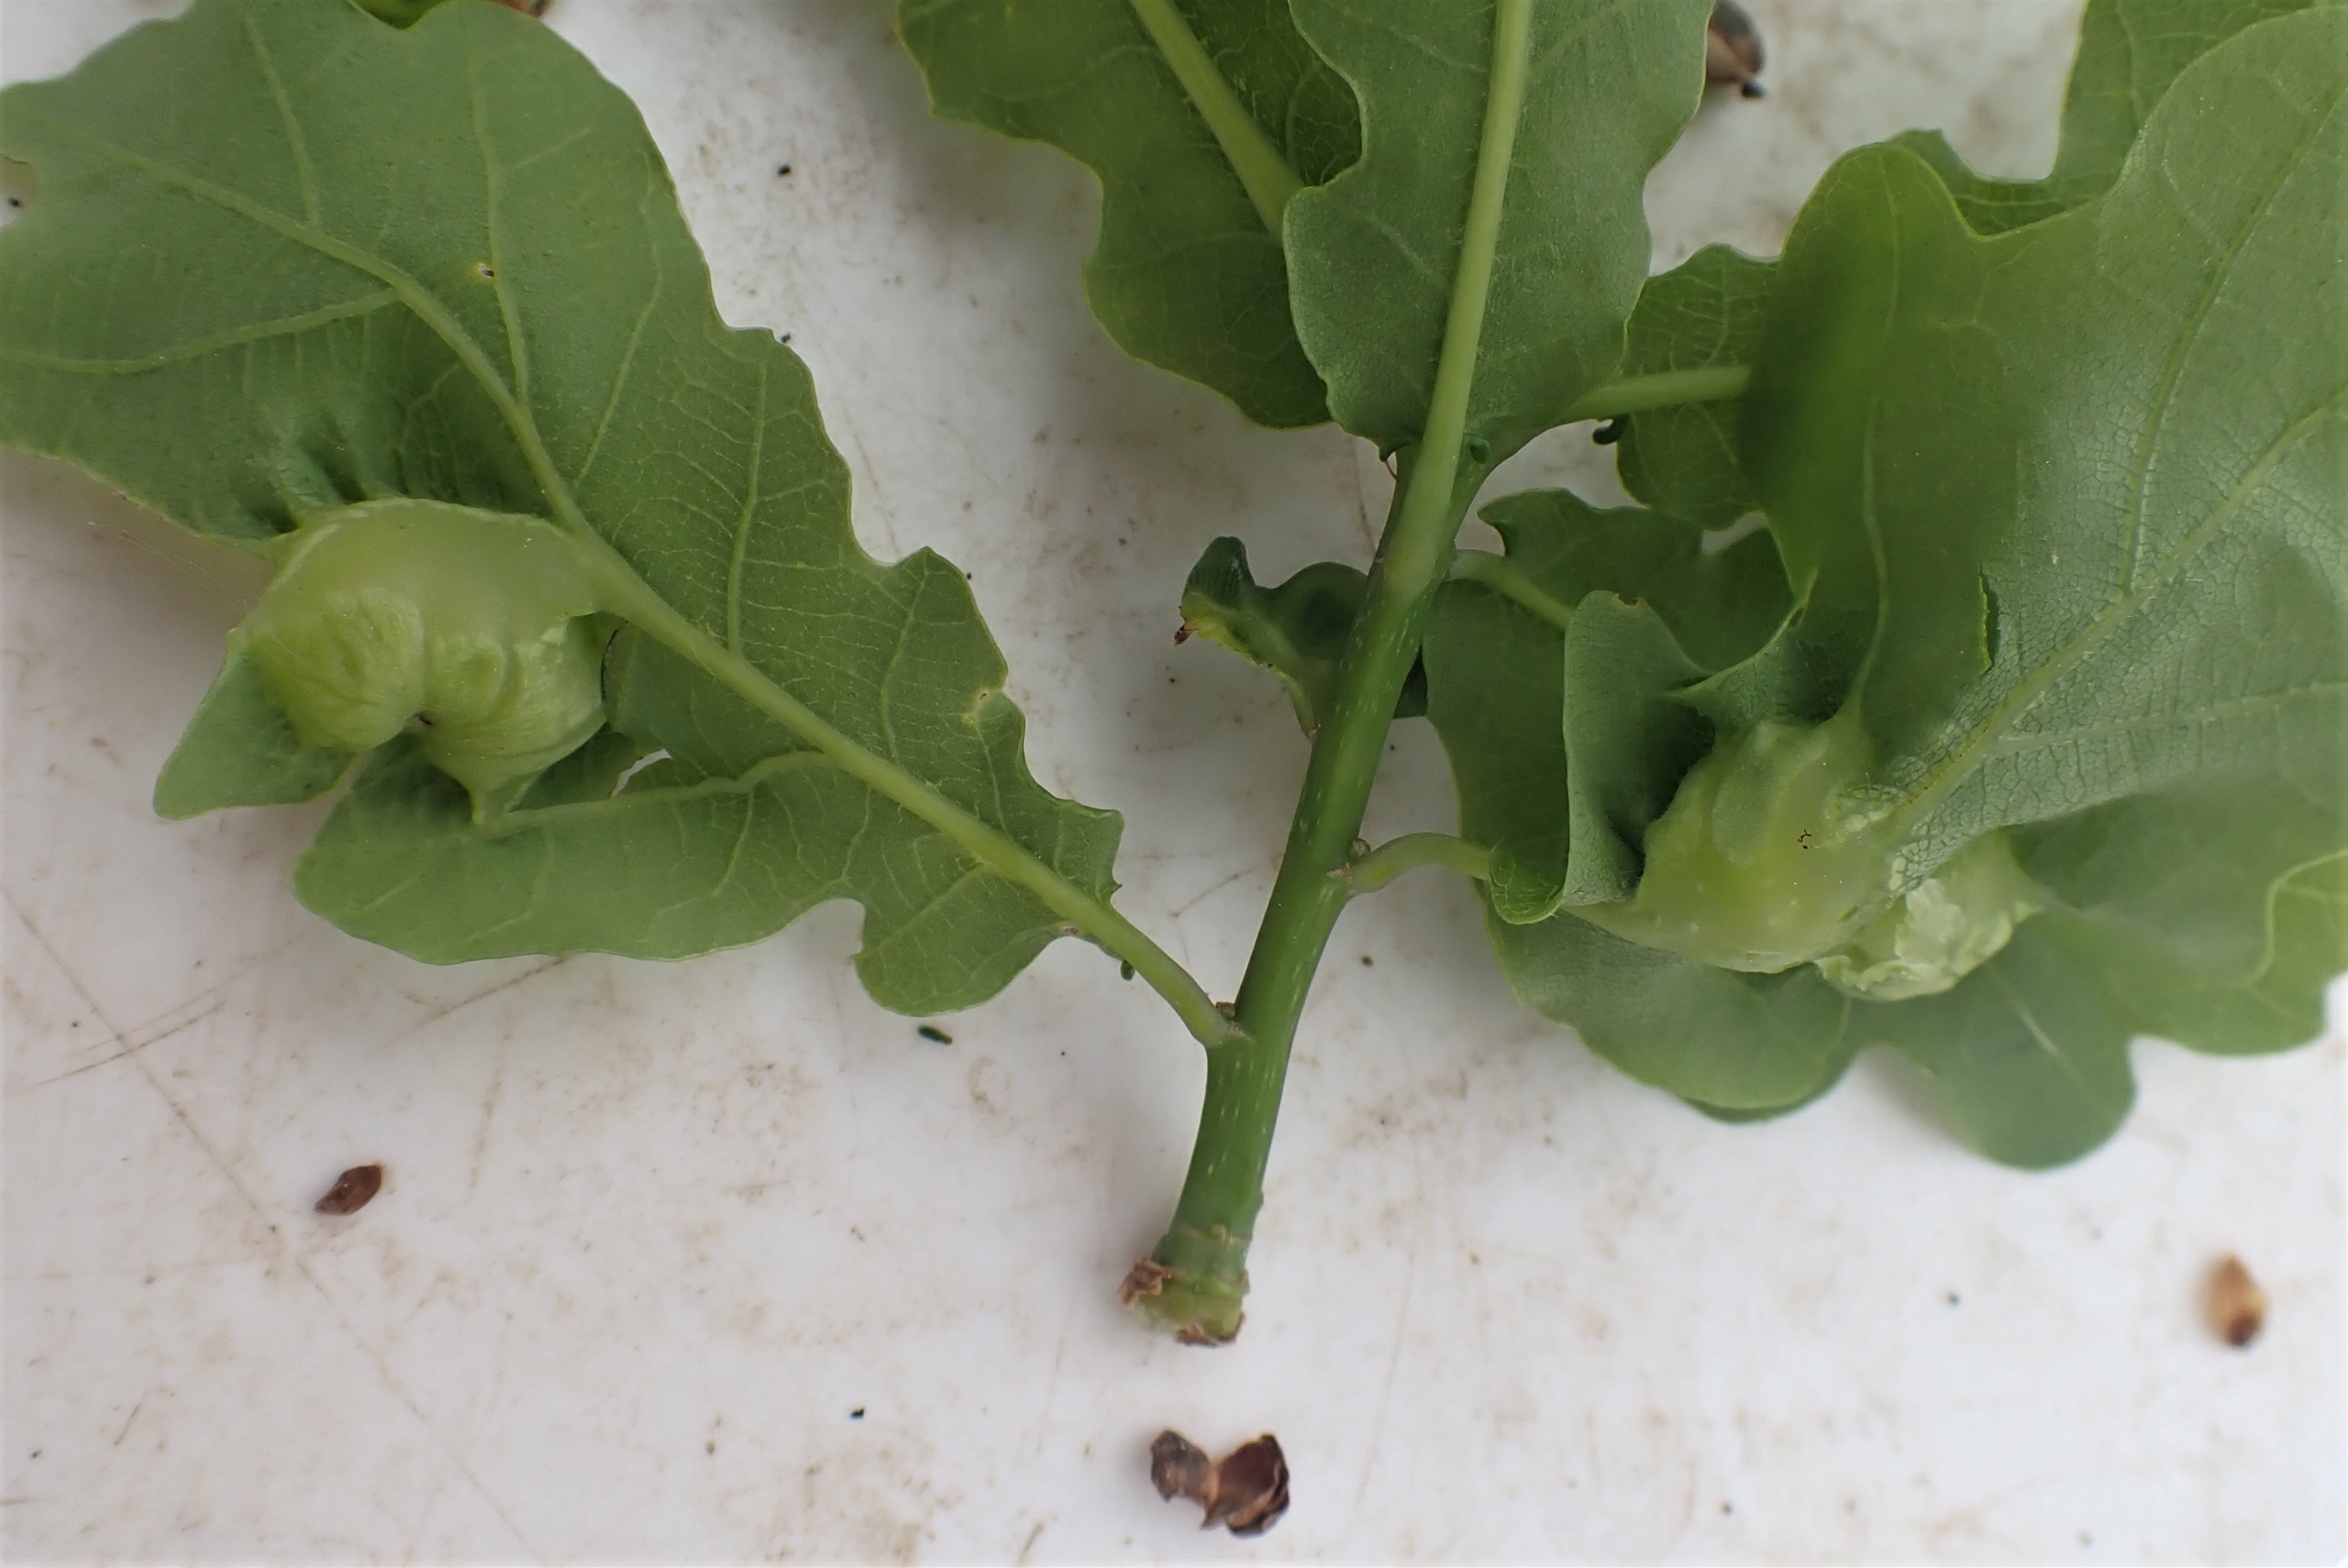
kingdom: Animalia
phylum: Arthropoda
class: Insecta
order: Hymenoptera
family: Cynipidae
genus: Andricus
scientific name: Andricus curvator
